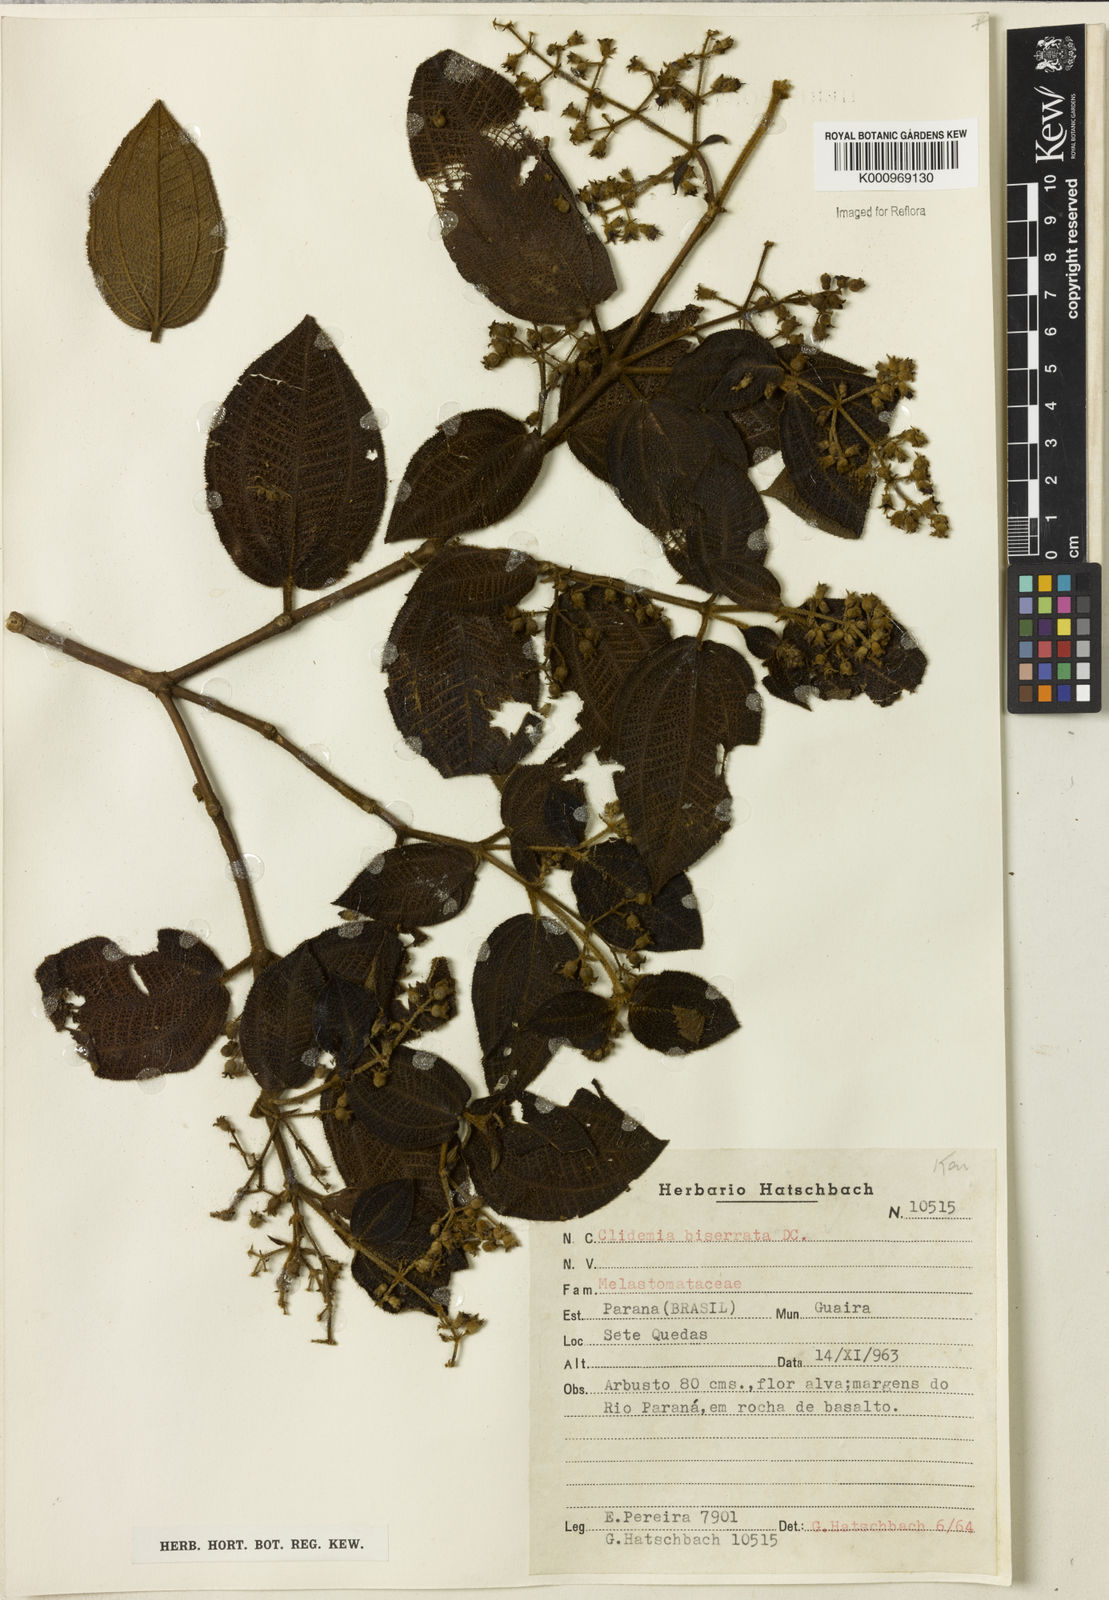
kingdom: Plantae
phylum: Tracheophyta
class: Magnoliopsida
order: Myrtales
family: Melastomataceae
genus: Miconia
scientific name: Miconia bullosa
